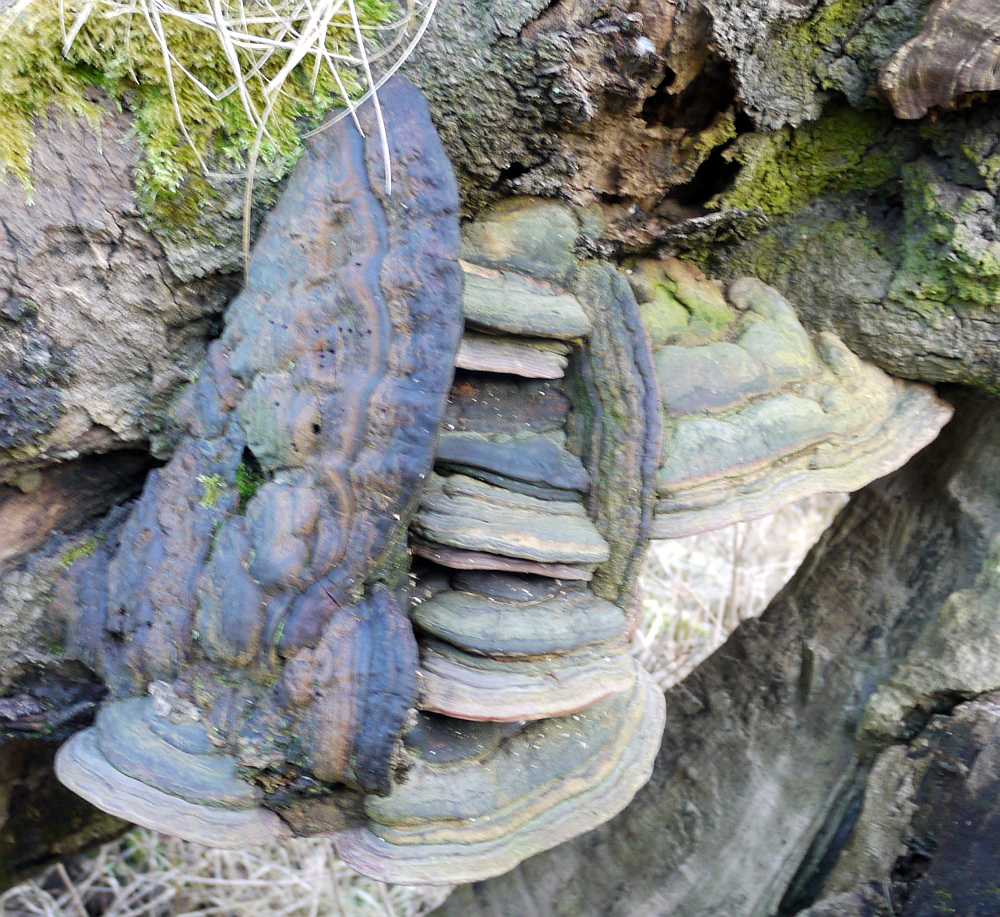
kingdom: Fungi
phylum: Basidiomycota
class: Agaricomycetes
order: Polyporales
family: Polyporaceae
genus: Ganoderma
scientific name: Ganoderma pfeifferi
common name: kobberrød lakporesvamp
